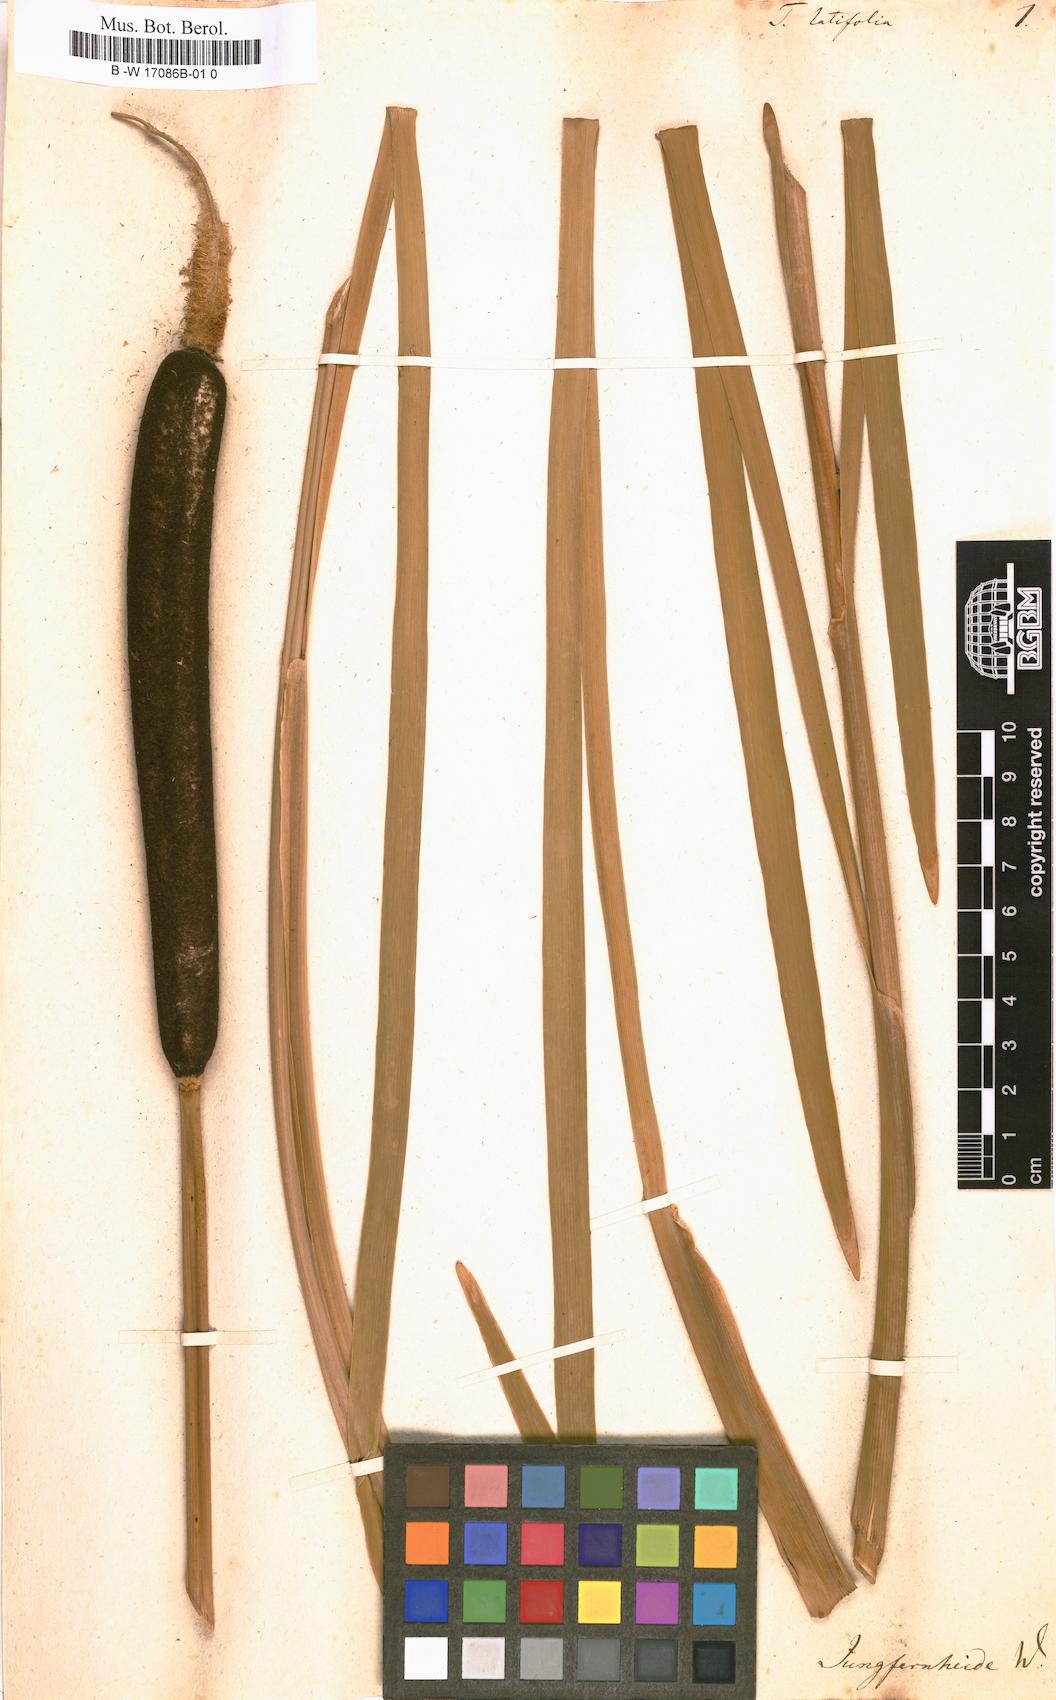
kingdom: Plantae
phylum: Tracheophyta
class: Liliopsida
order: Poales
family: Typhaceae
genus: Typha
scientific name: Typha latifolia
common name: Broadleaf cattail
